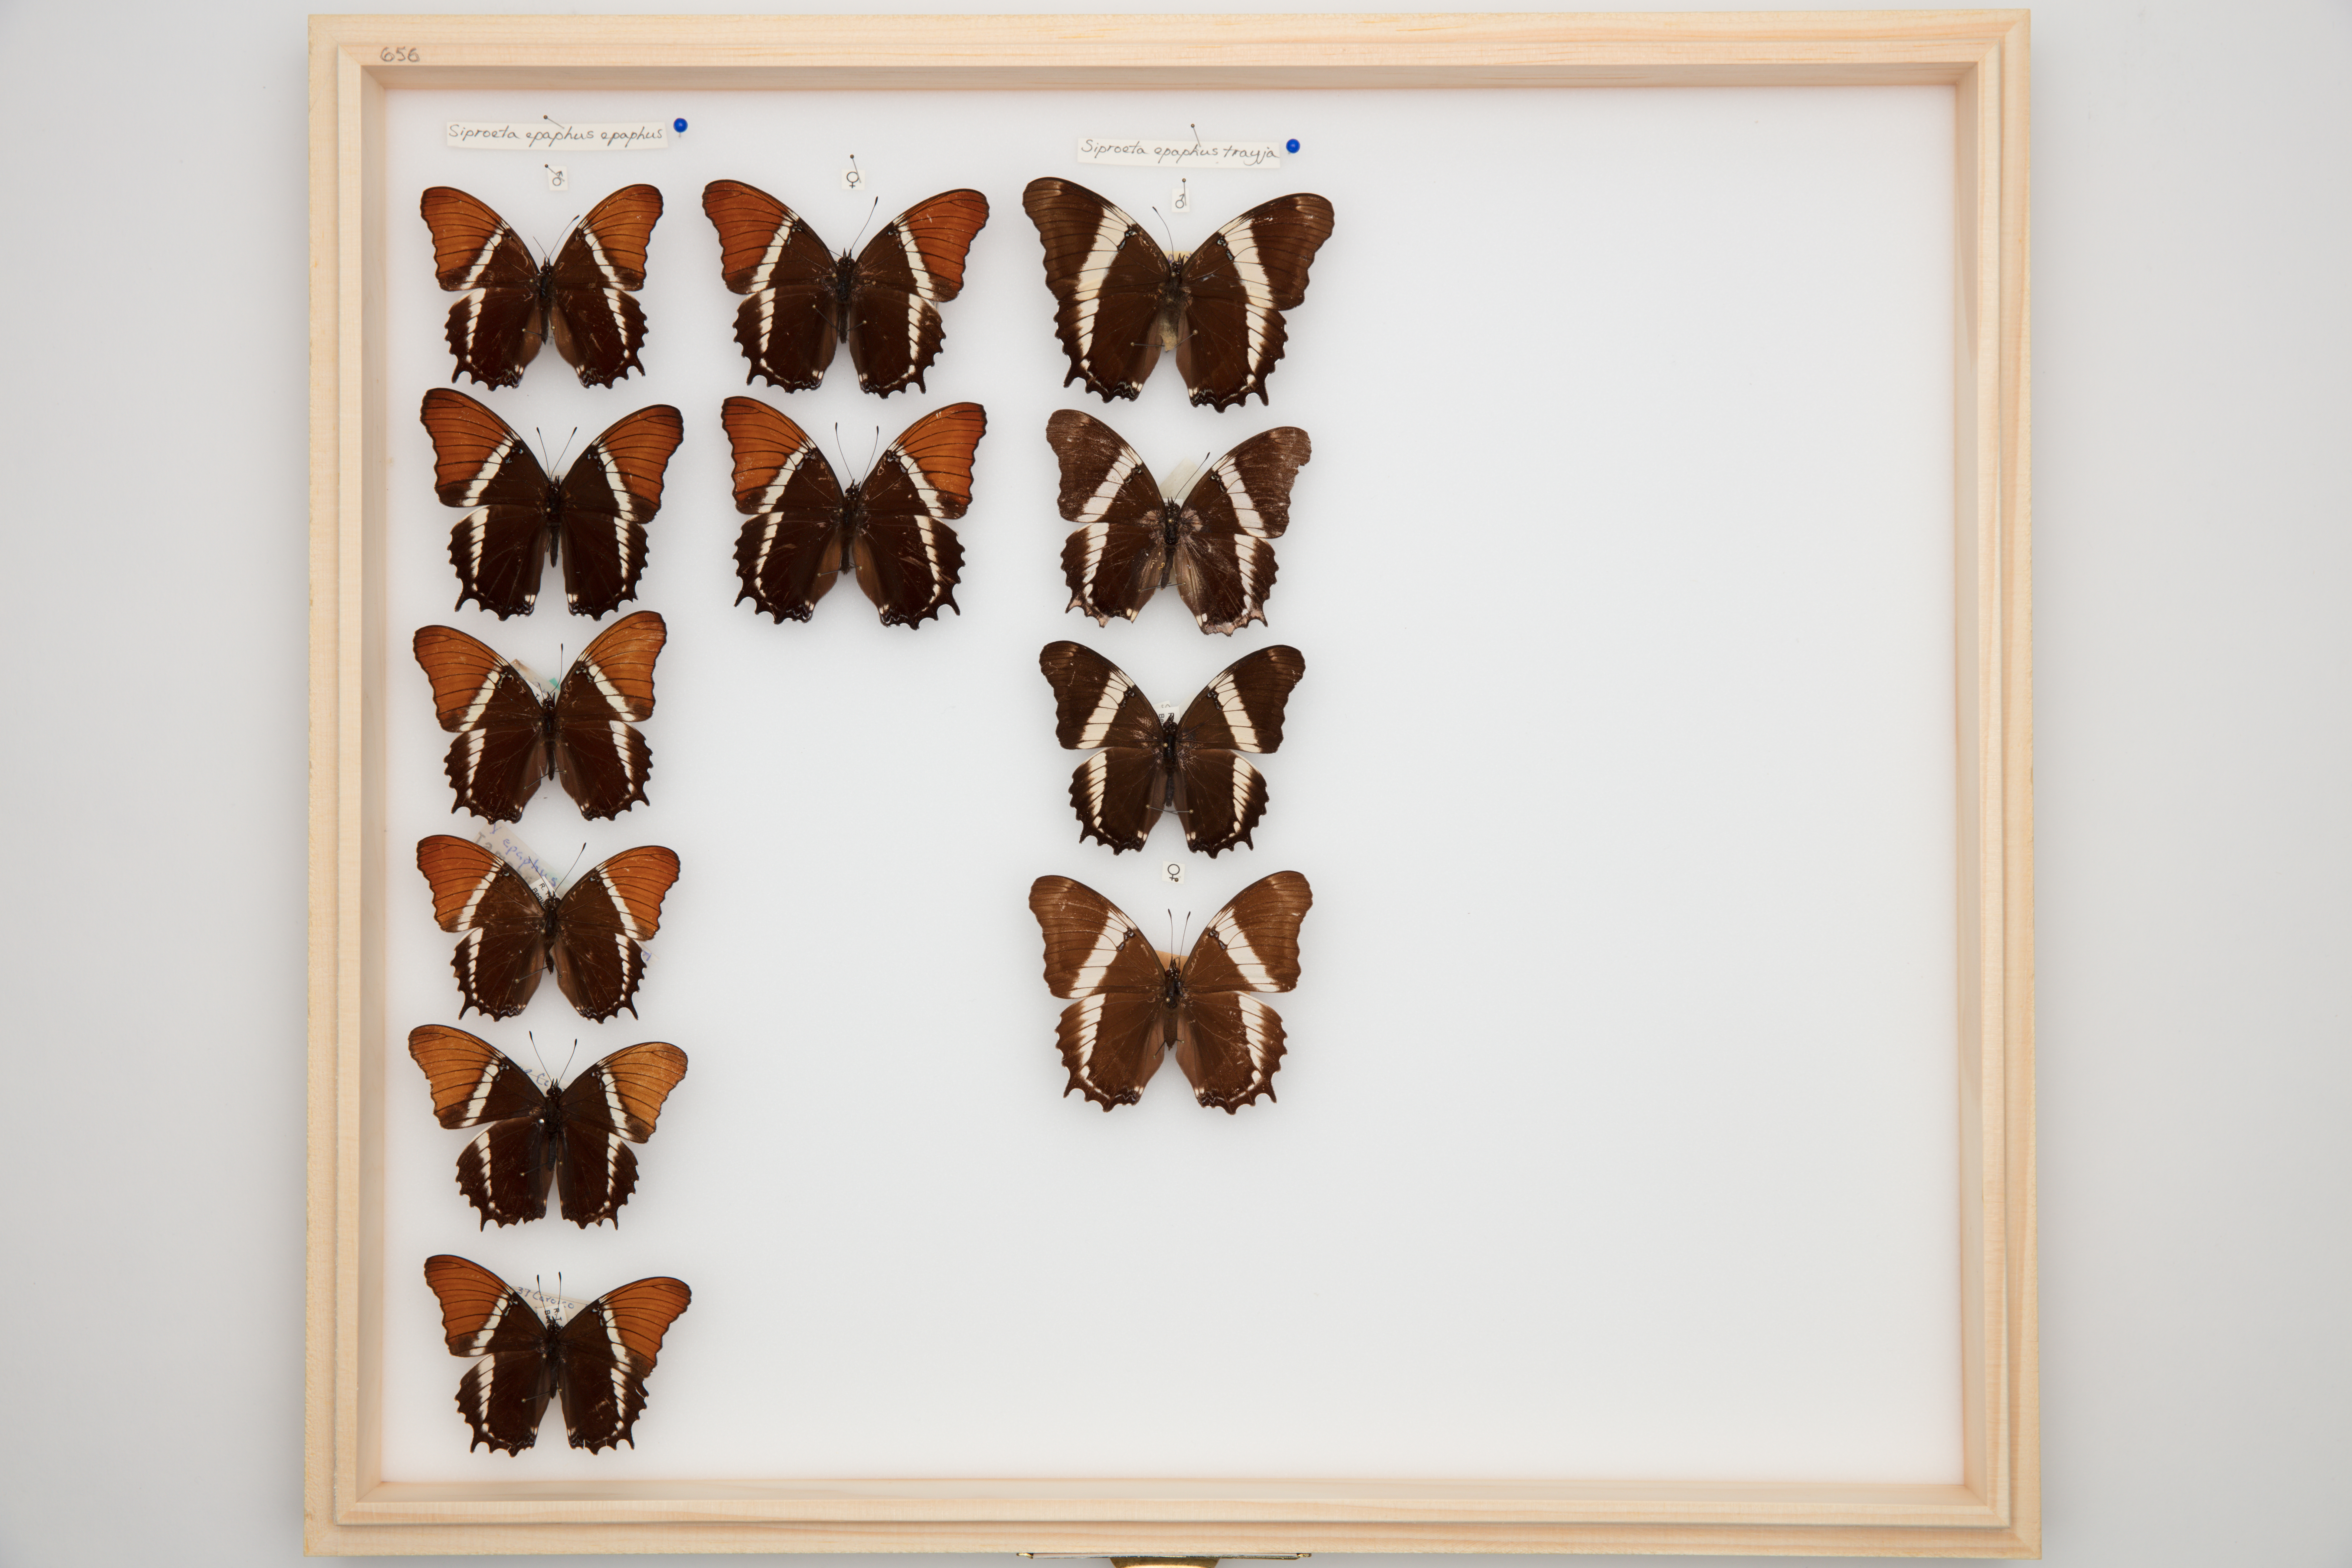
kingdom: Animalia
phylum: Arthropoda
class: Insecta
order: Lepidoptera
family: Nymphalidae
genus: Siproeta
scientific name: Siproeta epaphus
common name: Rusty-tipped page
